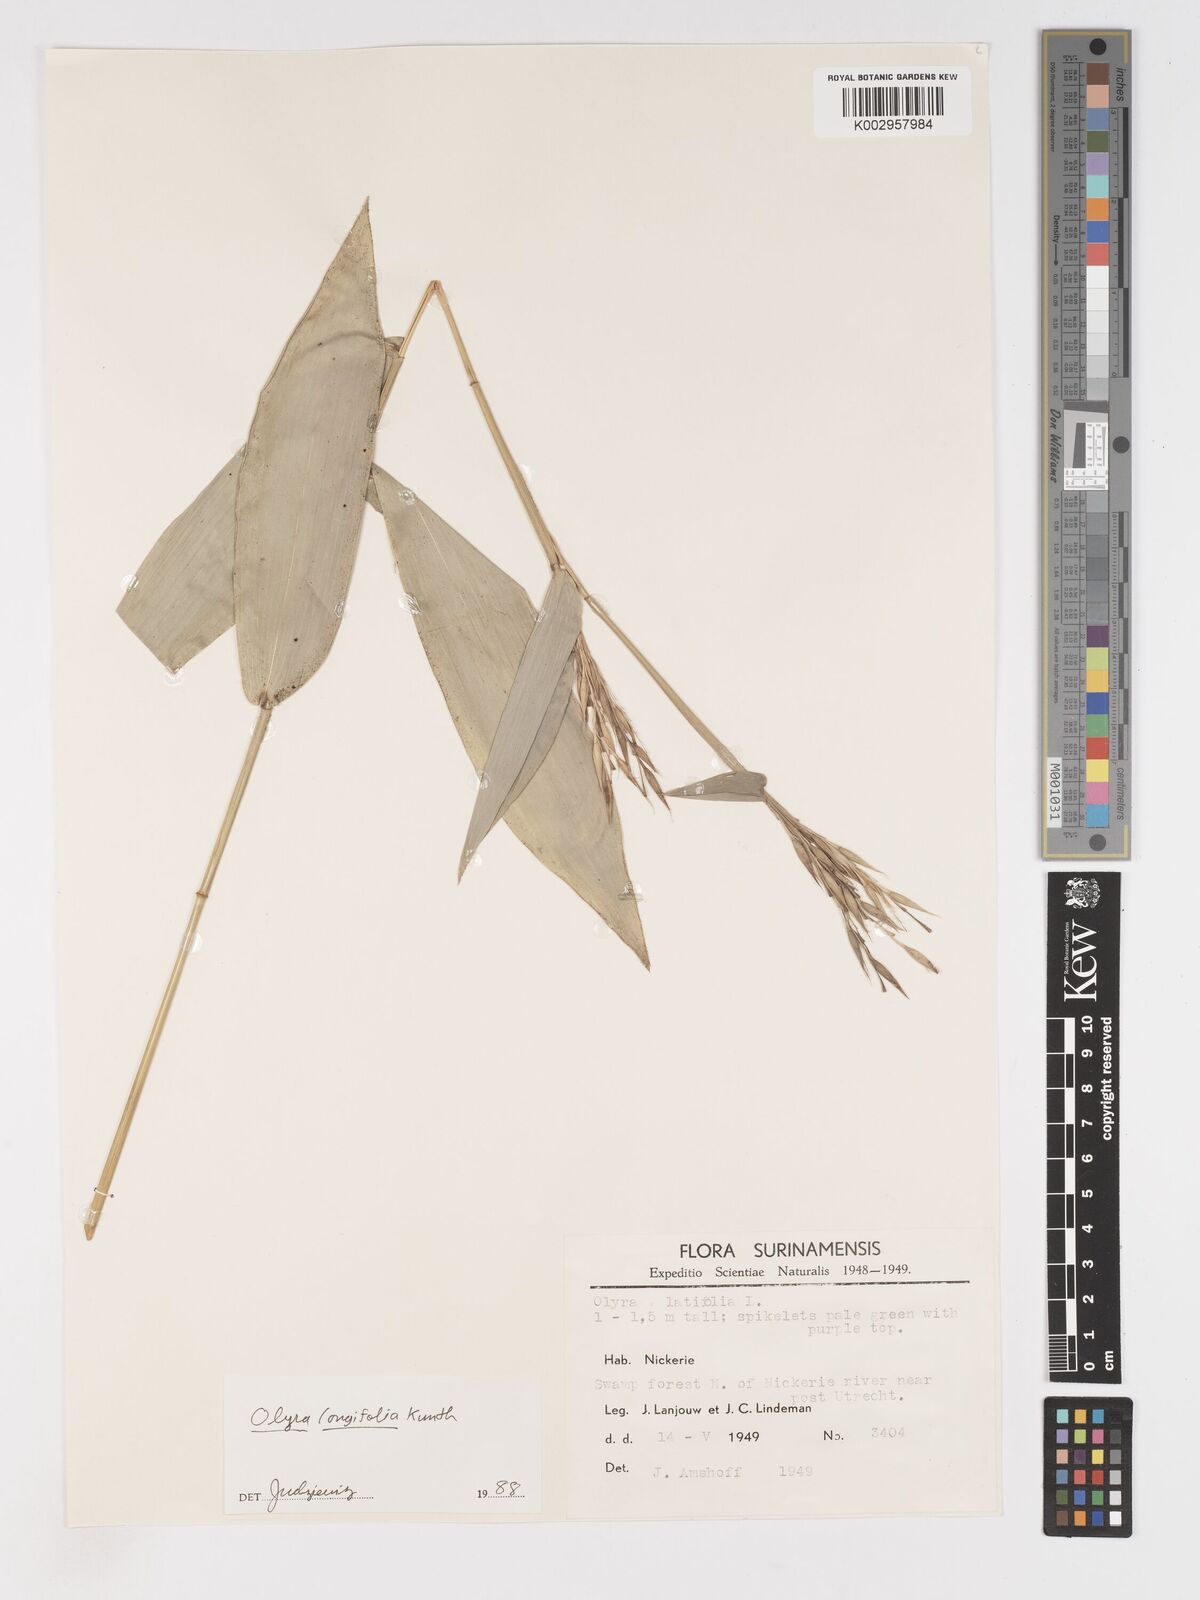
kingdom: Plantae
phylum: Tracheophyta
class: Liliopsida
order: Poales
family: Poaceae
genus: Olyra
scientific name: Olyra longifolia
